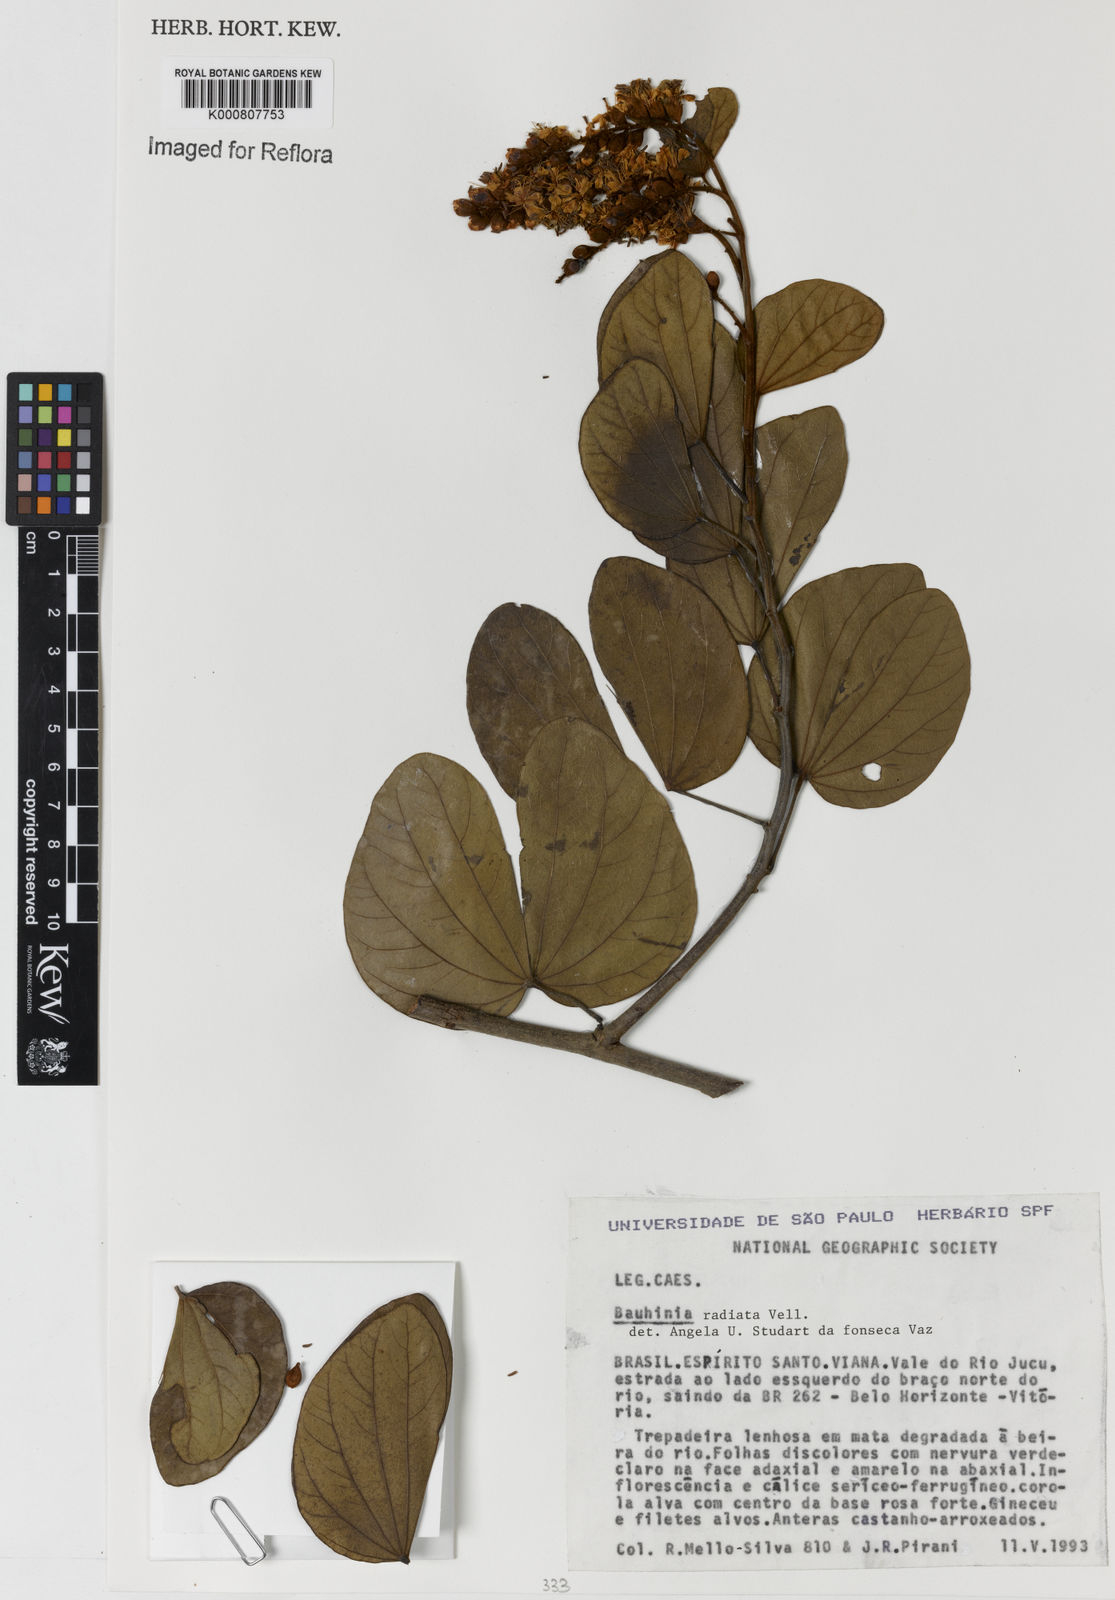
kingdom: Plantae
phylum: Tracheophyta
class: Magnoliopsida
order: Fabales
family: Fabaceae
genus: Schnella
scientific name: Schnella macrostachya
